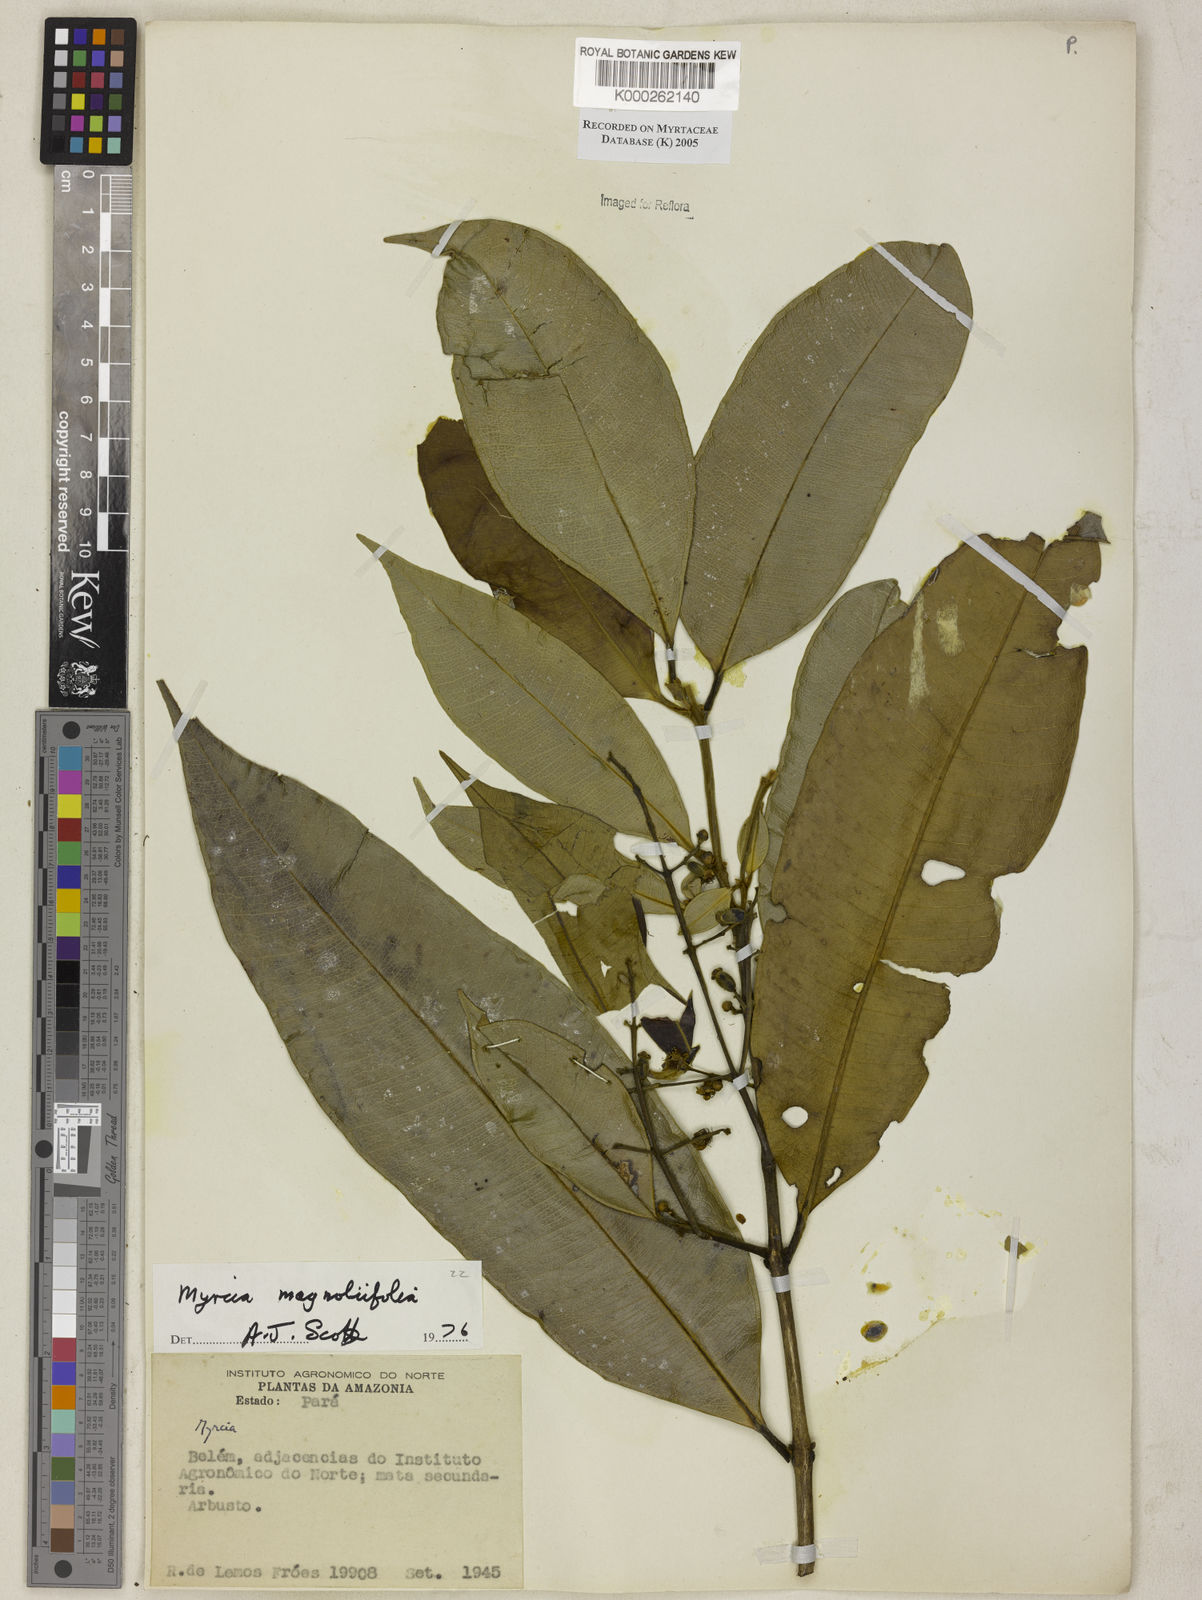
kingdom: Plantae
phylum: Tracheophyta
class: Magnoliopsida
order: Myrtales
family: Myrtaceae
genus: Myrcia
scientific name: Myrcia splendens
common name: Surinam cherry
